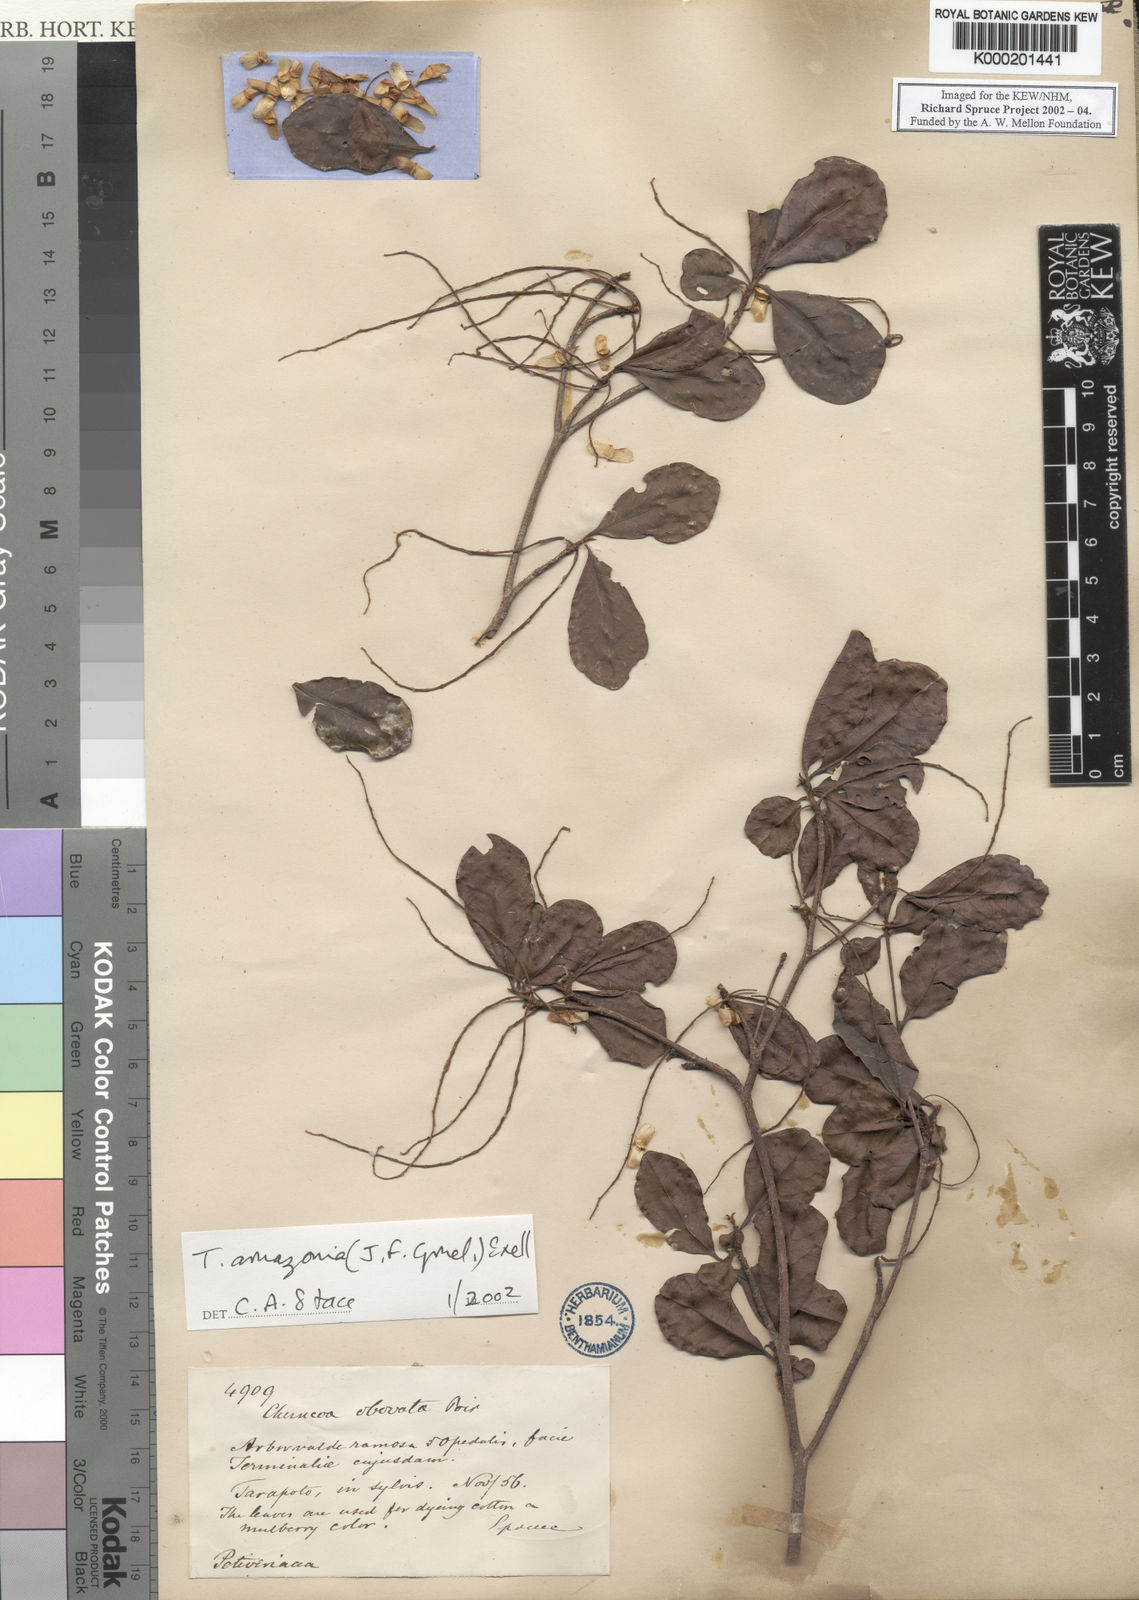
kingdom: Plantae
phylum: Tracheophyta
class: Magnoliopsida
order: Myrtales
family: Combretaceae
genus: Terminalia
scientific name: Terminalia amazonica
